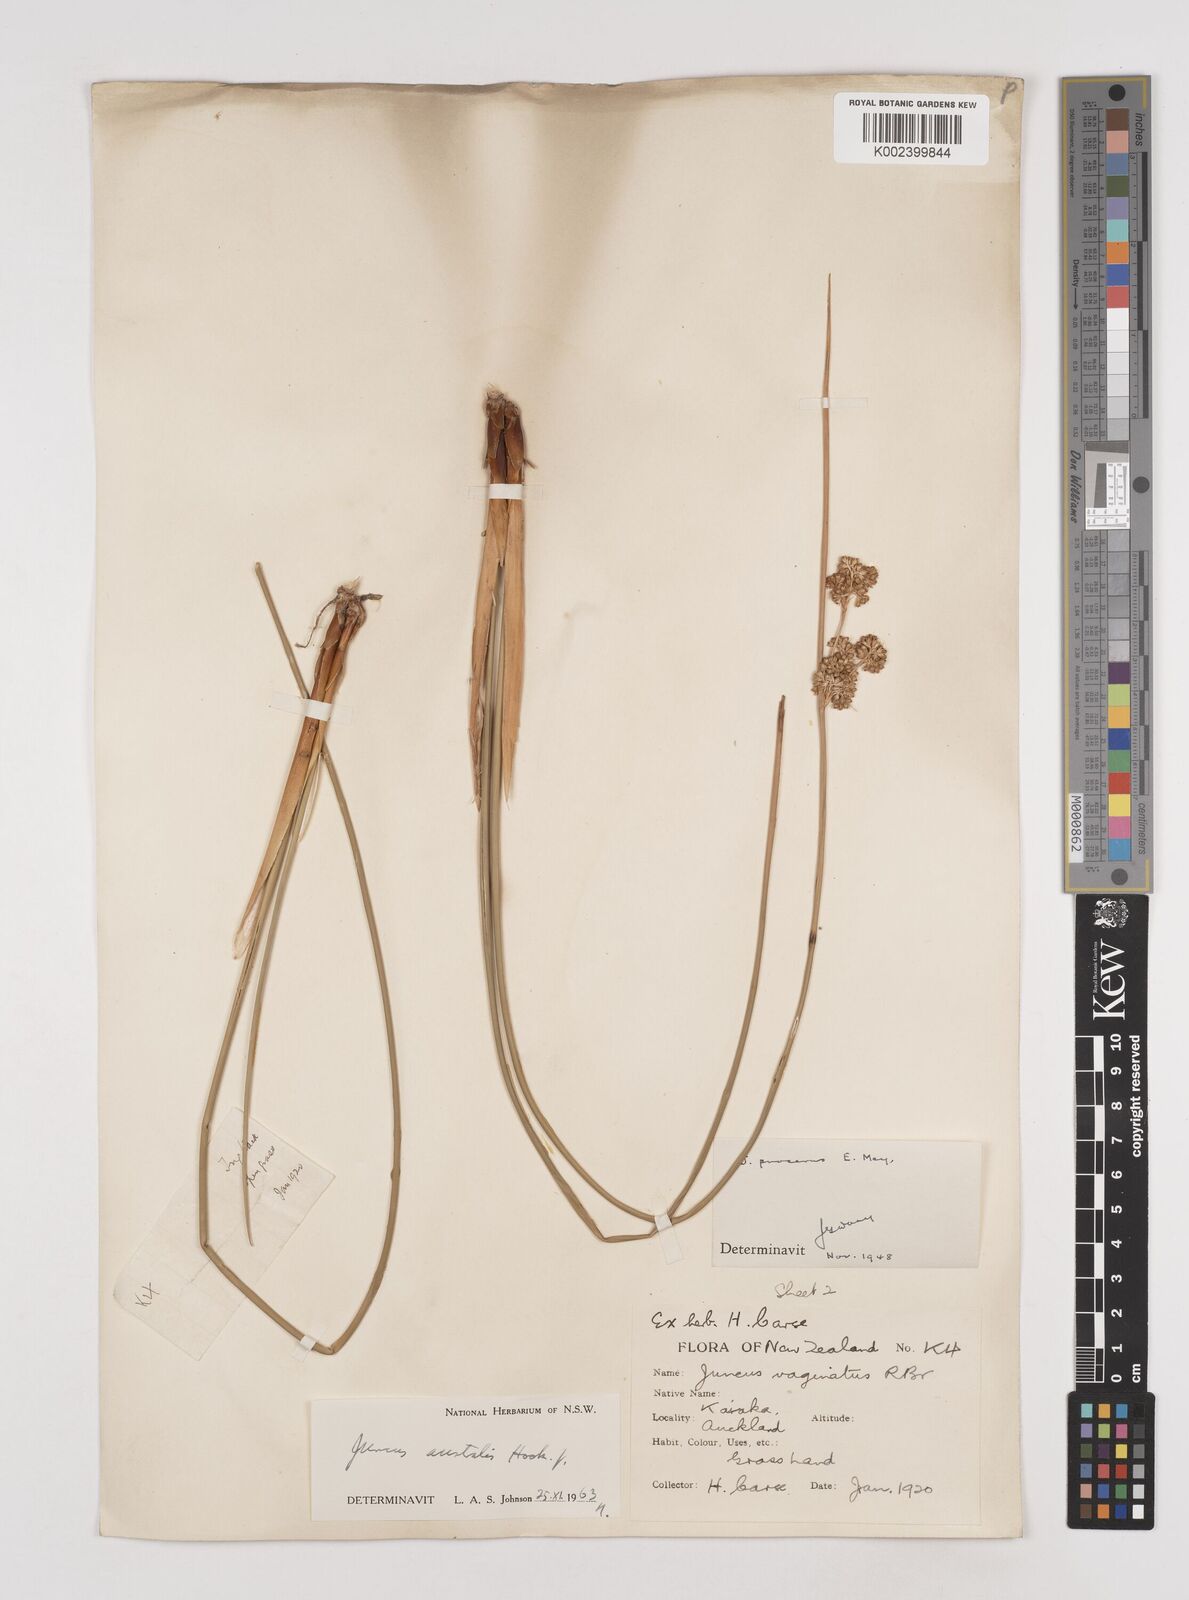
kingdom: Plantae
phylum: Tracheophyta
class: Liliopsida
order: Poales
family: Juncaceae
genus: Juncus
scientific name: Juncus australis
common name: Austral rush
